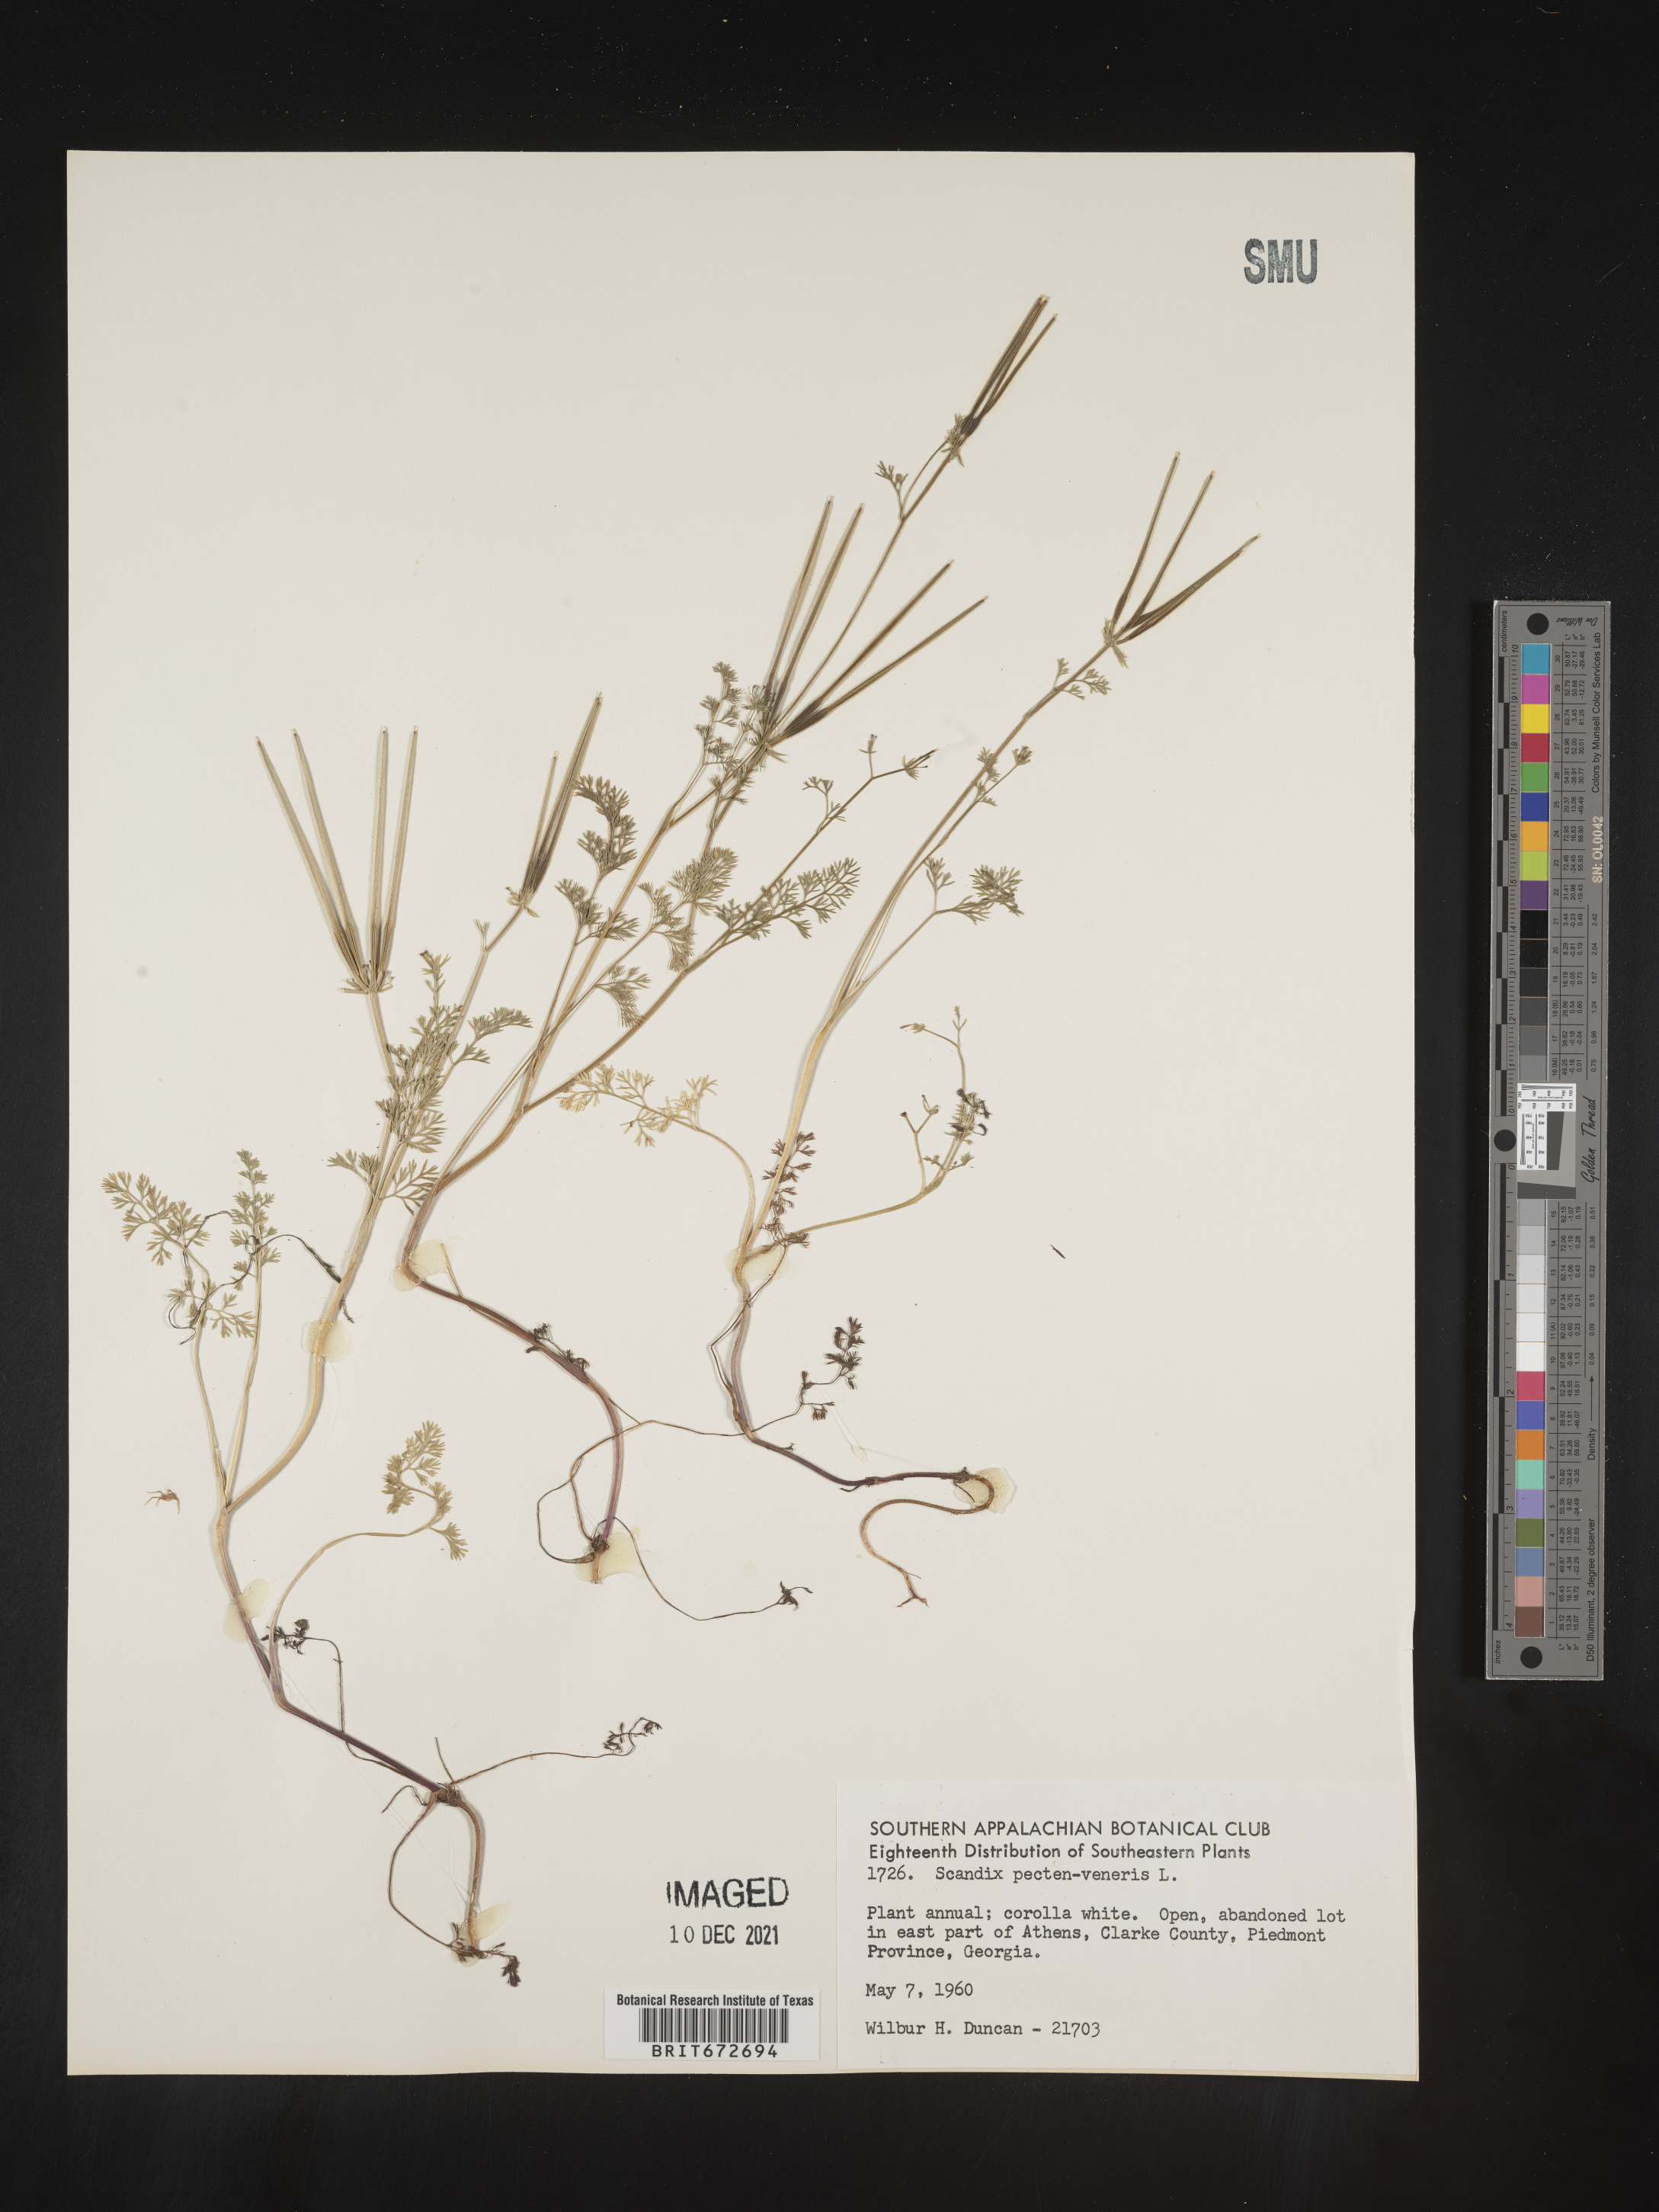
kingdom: Plantae
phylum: Tracheophyta
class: Magnoliopsida
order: Apiales
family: Apiaceae
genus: Scandix
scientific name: Scandix
